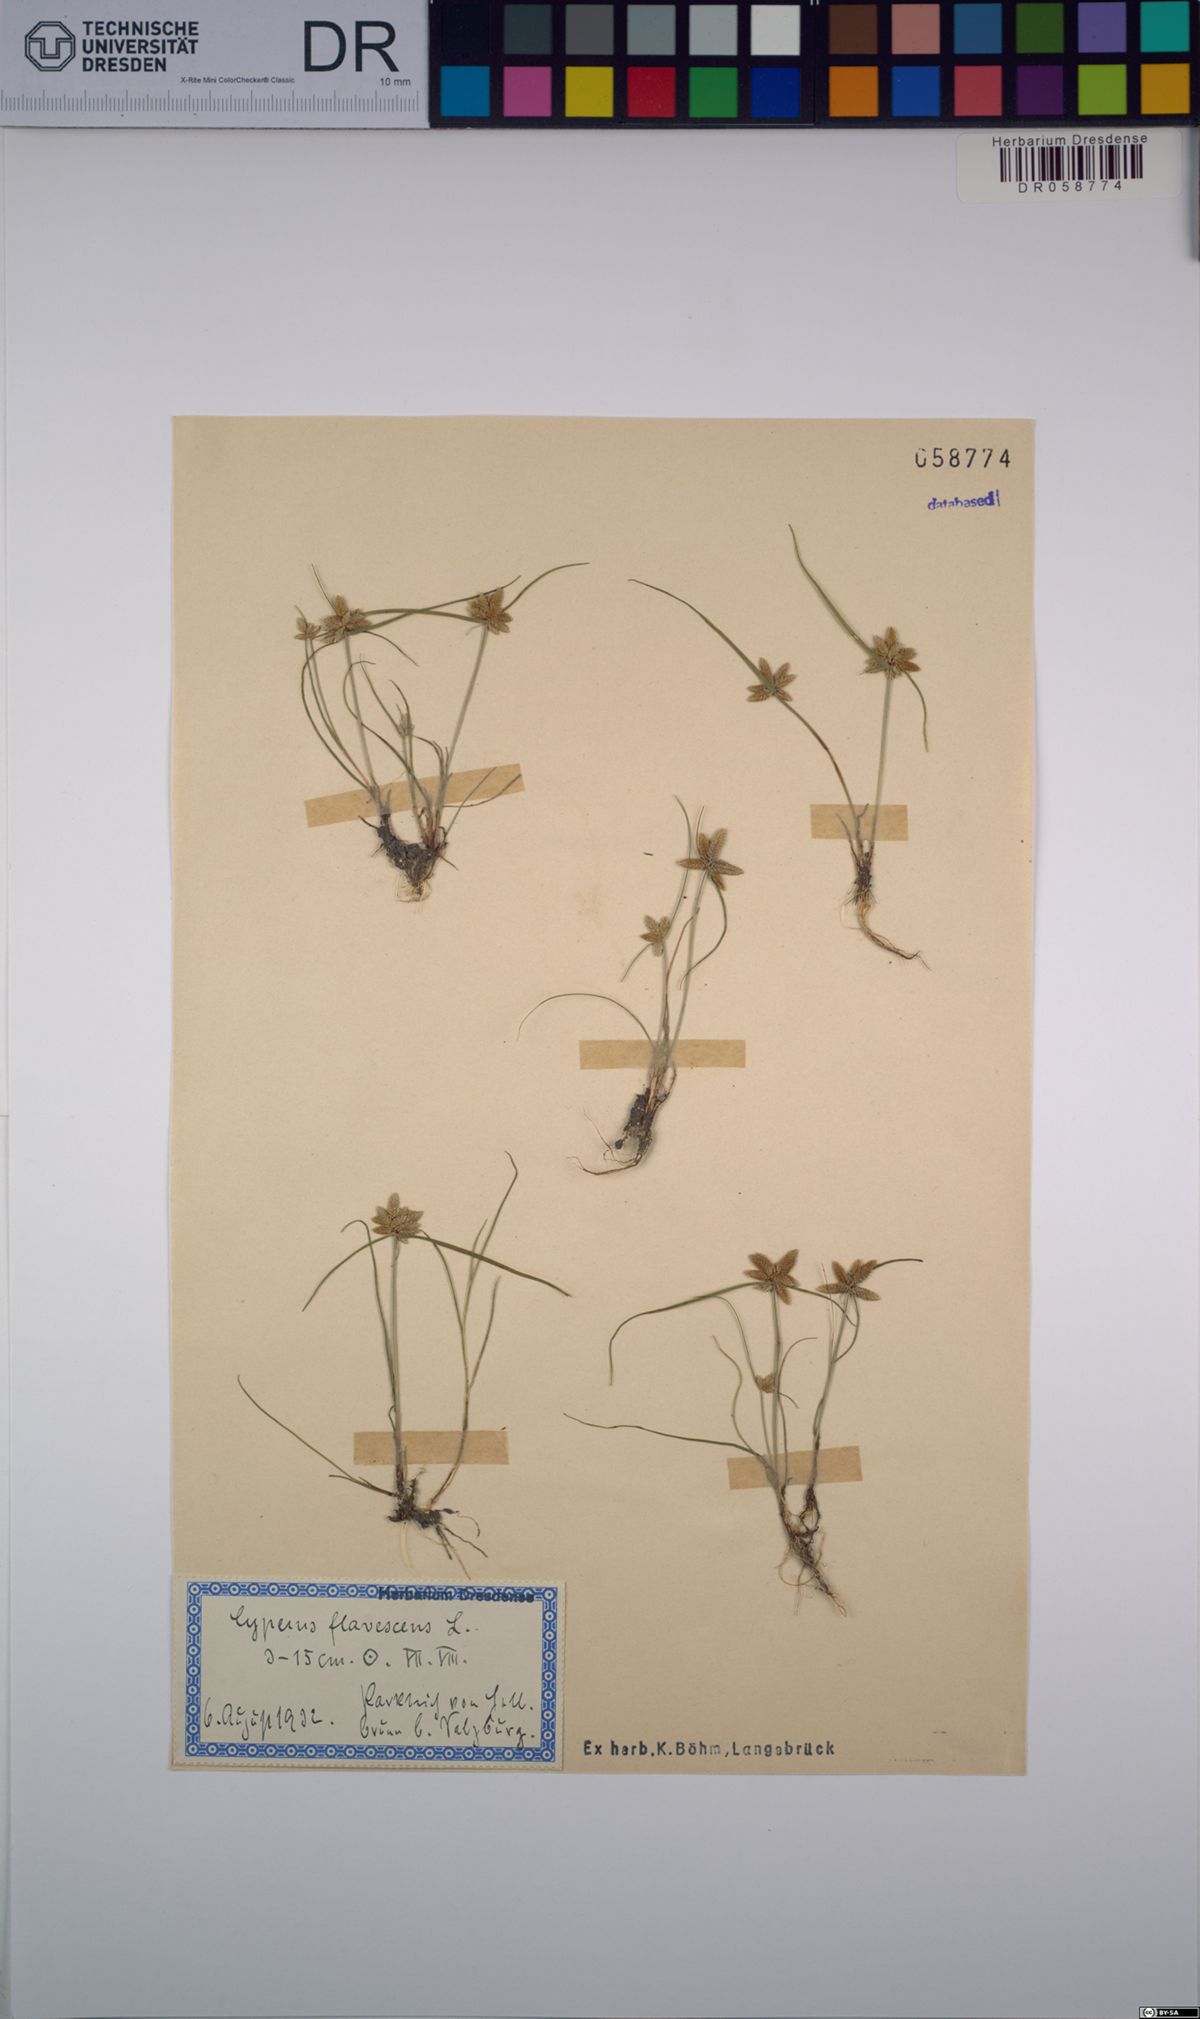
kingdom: Plantae
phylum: Tracheophyta
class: Liliopsida
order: Poales
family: Cyperaceae
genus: Cyperus
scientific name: Cyperus flavescens
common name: Yellow galingale
